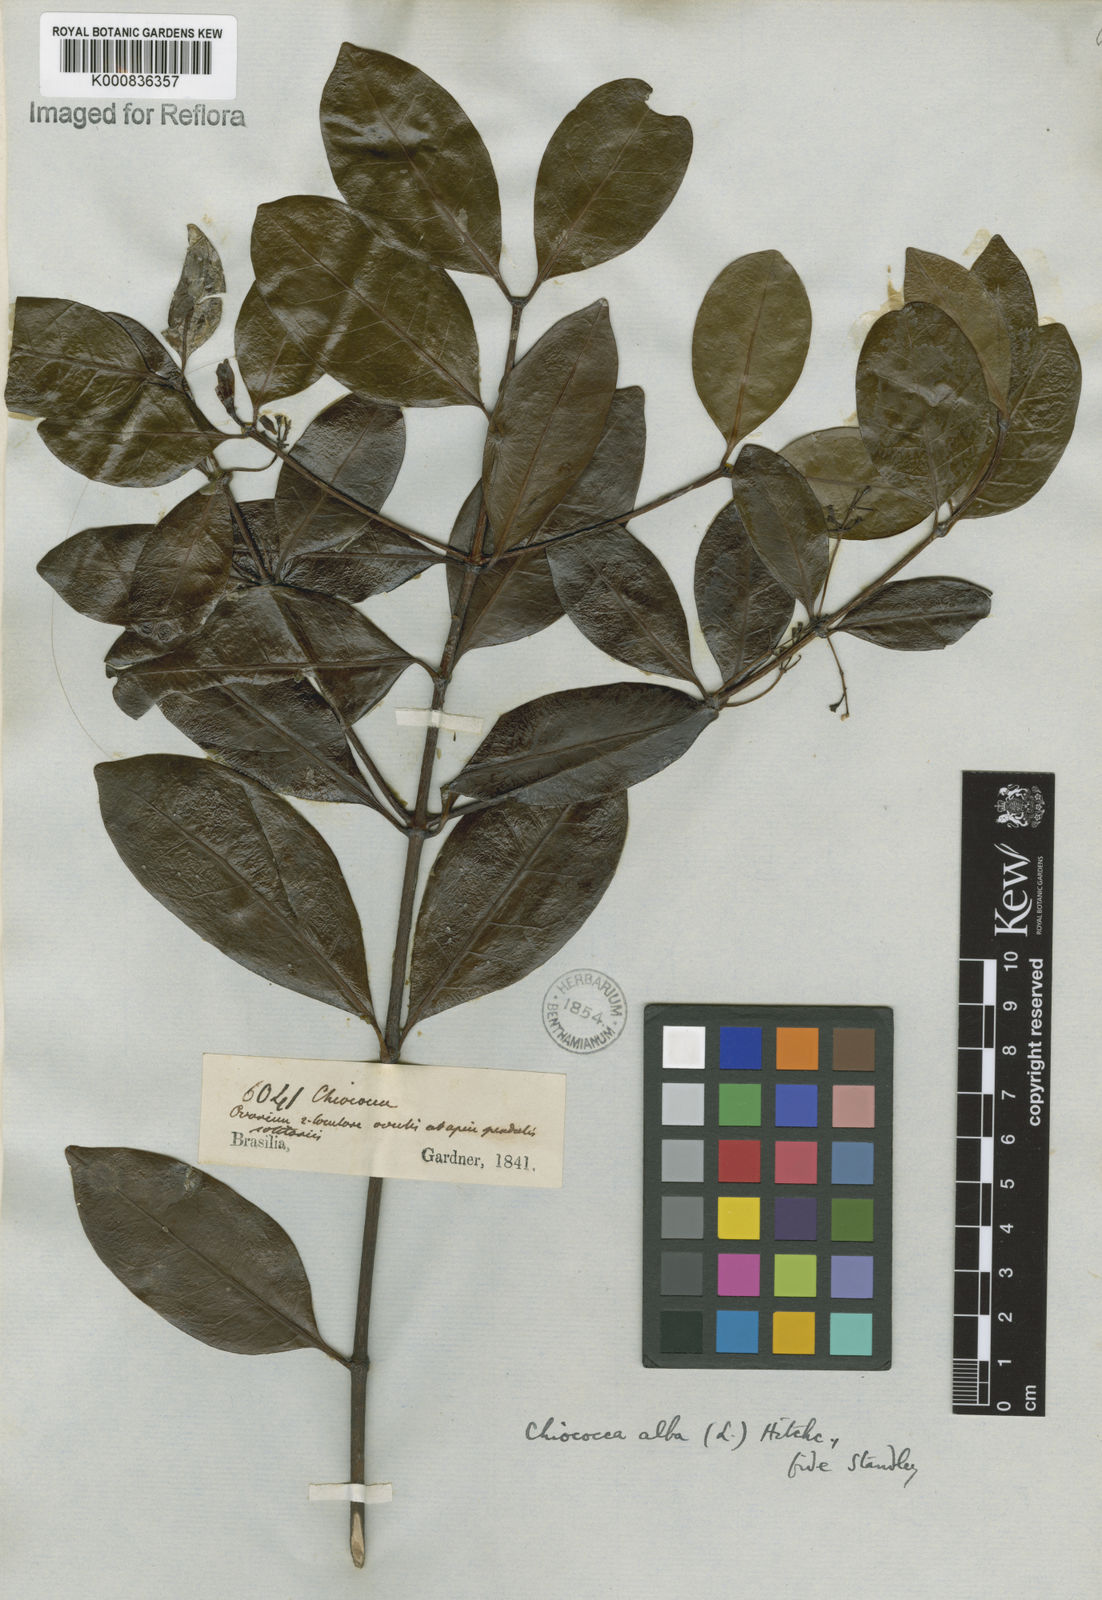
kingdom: Plantae
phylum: Tracheophyta
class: Magnoliopsida
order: Gentianales
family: Rubiaceae
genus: Chiococca
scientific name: Chiococca alba
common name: Snowberry
